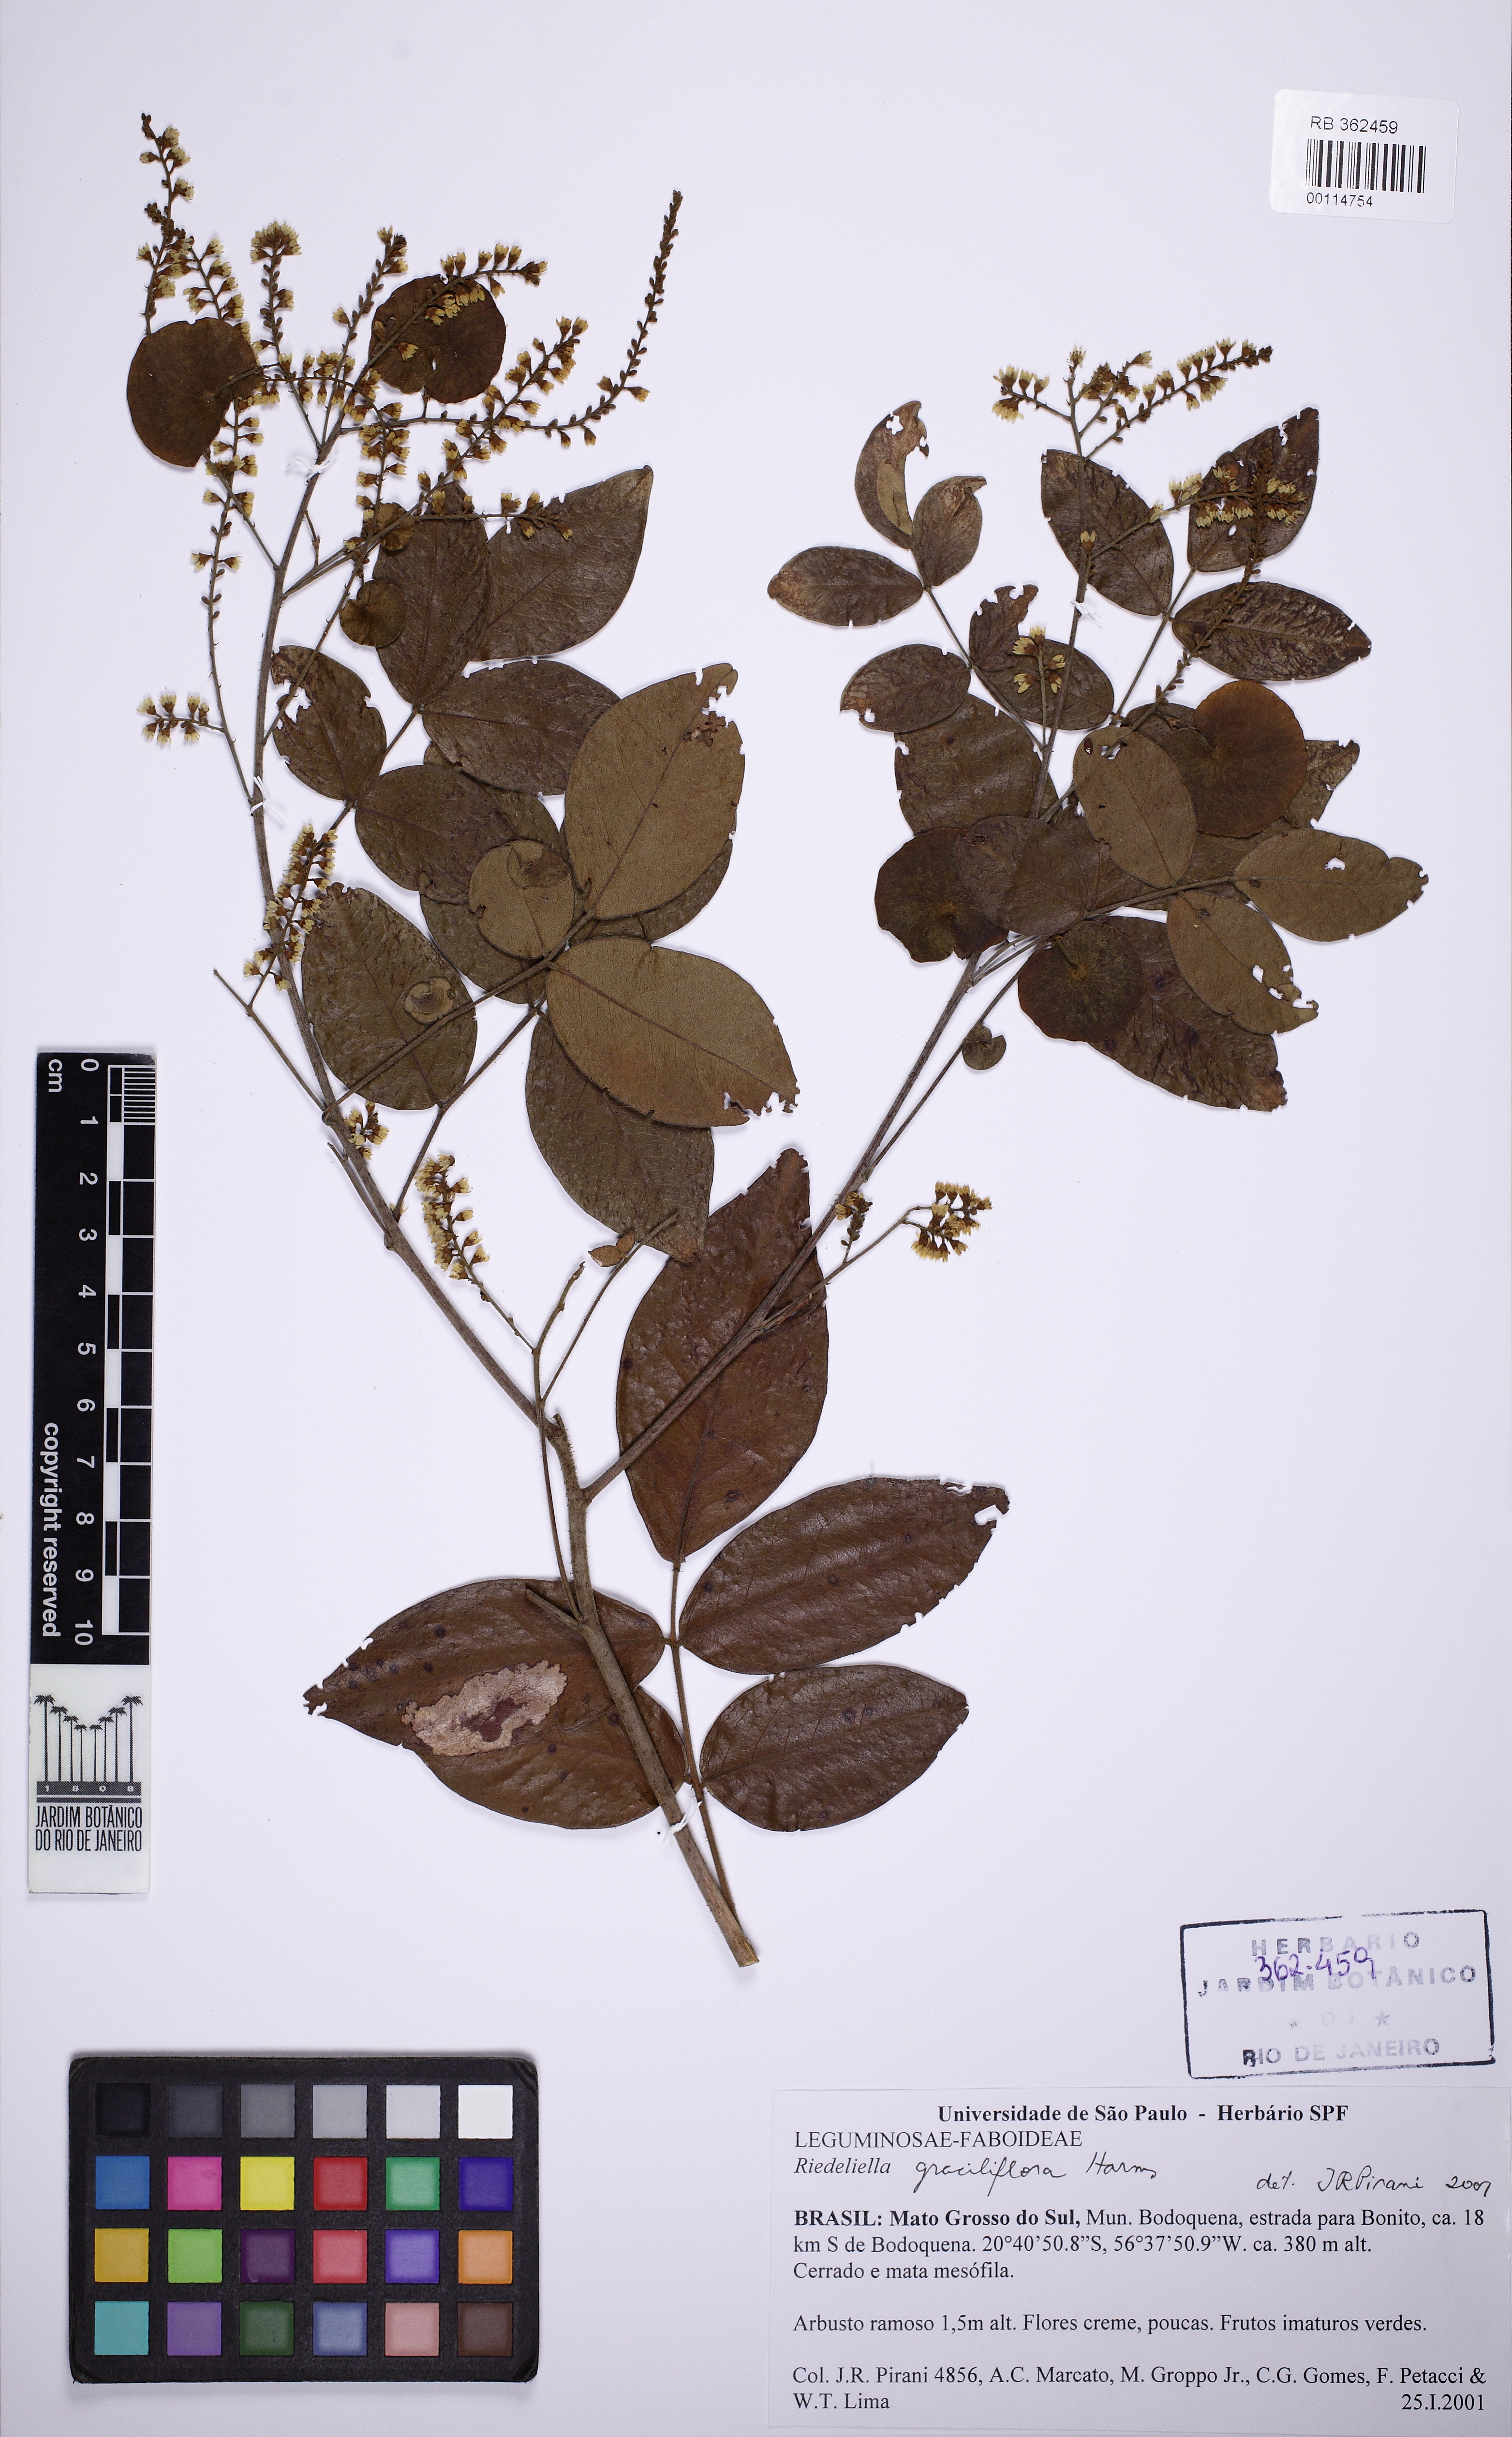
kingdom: Plantae
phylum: Tracheophyta
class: Magnoliopsida
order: Fabales
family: Fabaceae
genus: Riedeliella
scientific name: Riedeliella graciliflora
